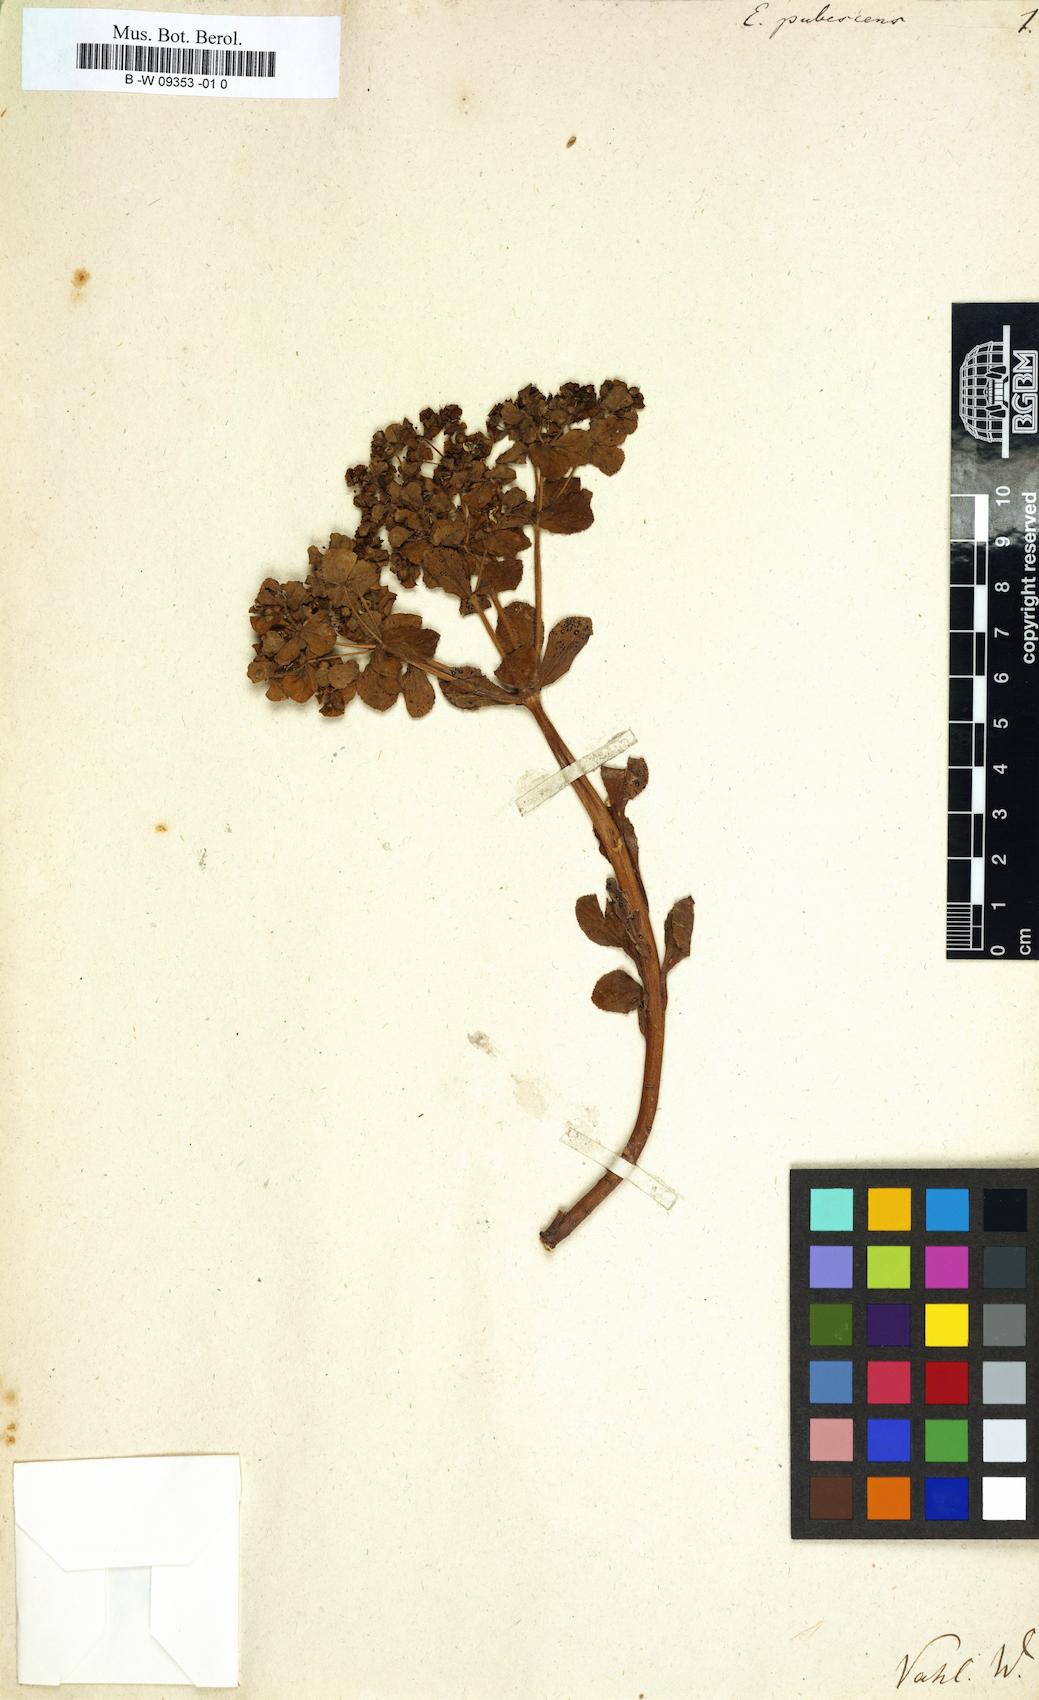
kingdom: Plantae
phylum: Tracheophyta
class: Magnoliopsida
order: Malpighiales
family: Euphorbiaceae
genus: Euphorbia
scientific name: Euphorbia hirsuta
